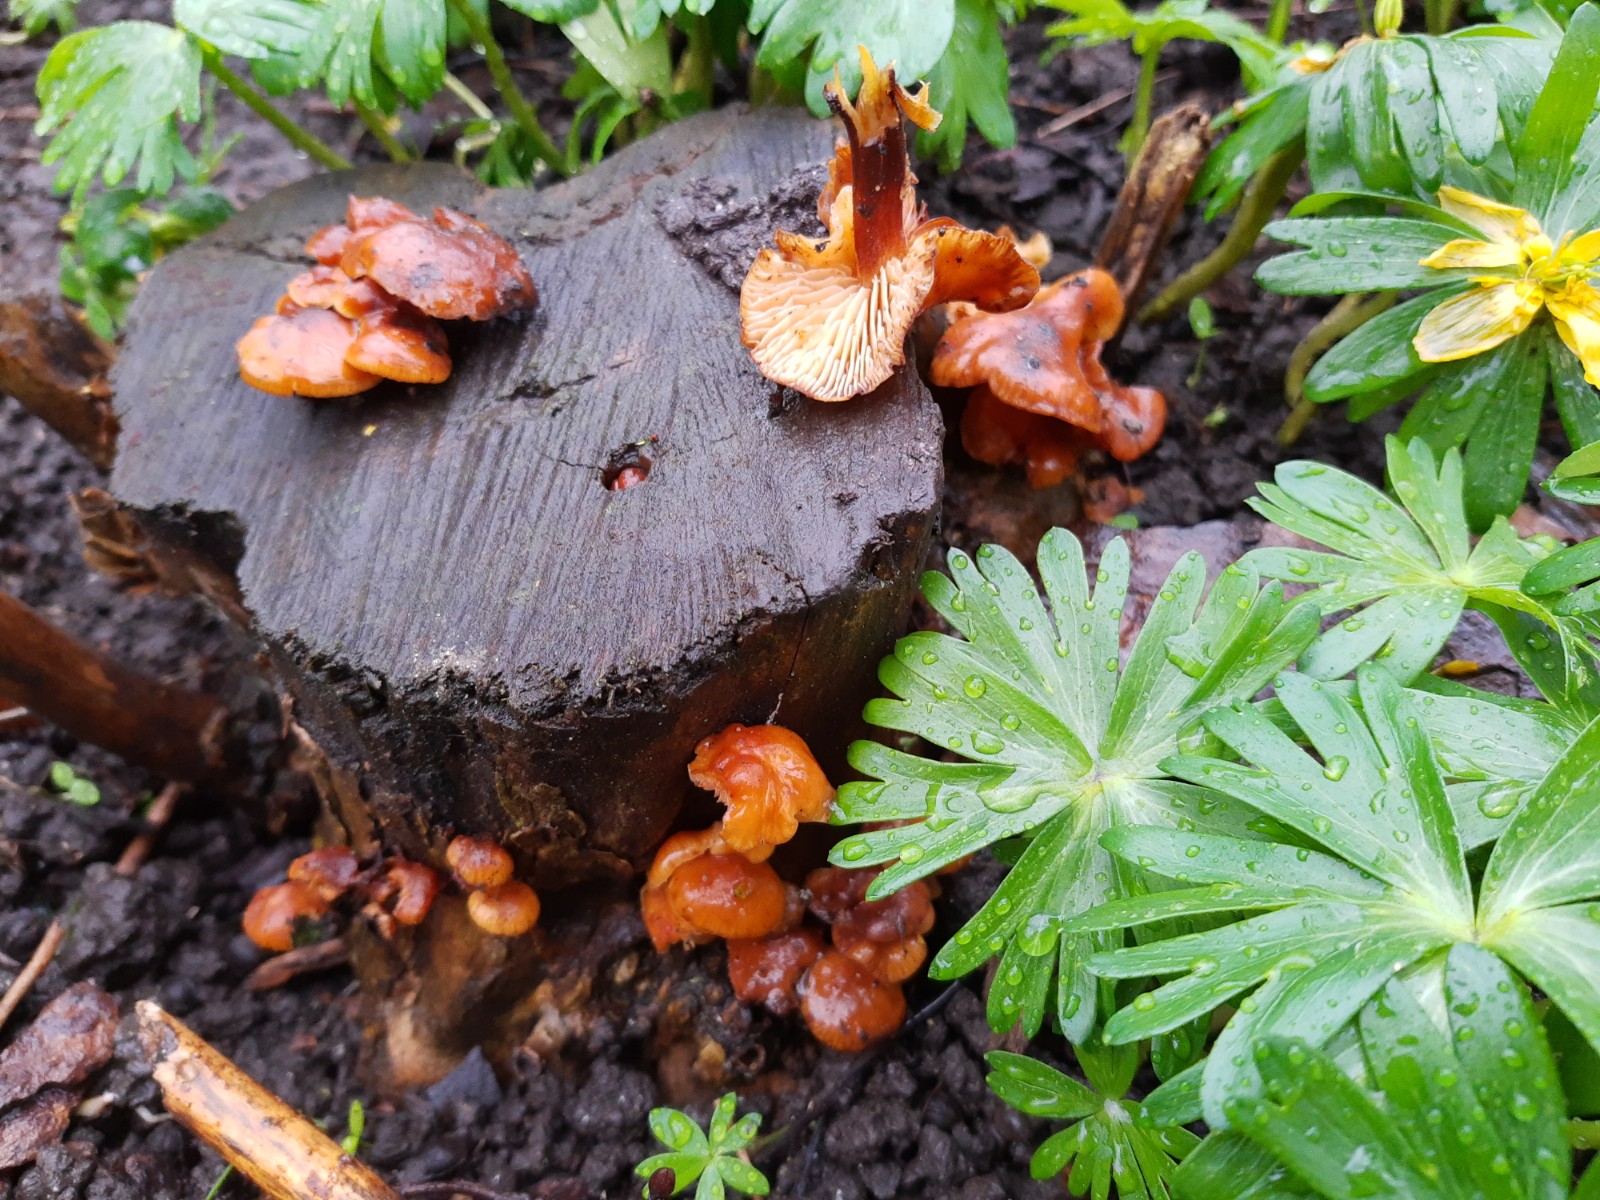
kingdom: Fungi
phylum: Basidiomycota
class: Agaricomycetes
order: Agaricales
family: Physalacriaceae
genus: Flammulina
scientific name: Flammulina
